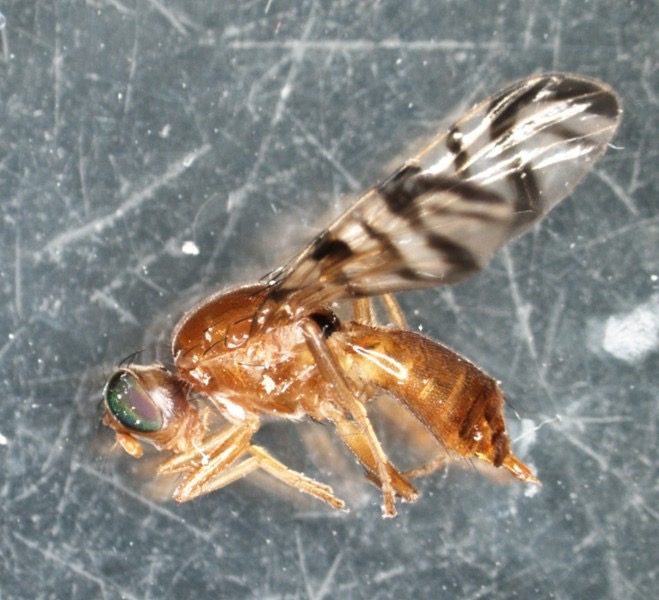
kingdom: Animalia
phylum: Arthropoda
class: Insecta
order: Diptera
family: Tephritidae
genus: Acidia
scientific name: Acidia cognata
